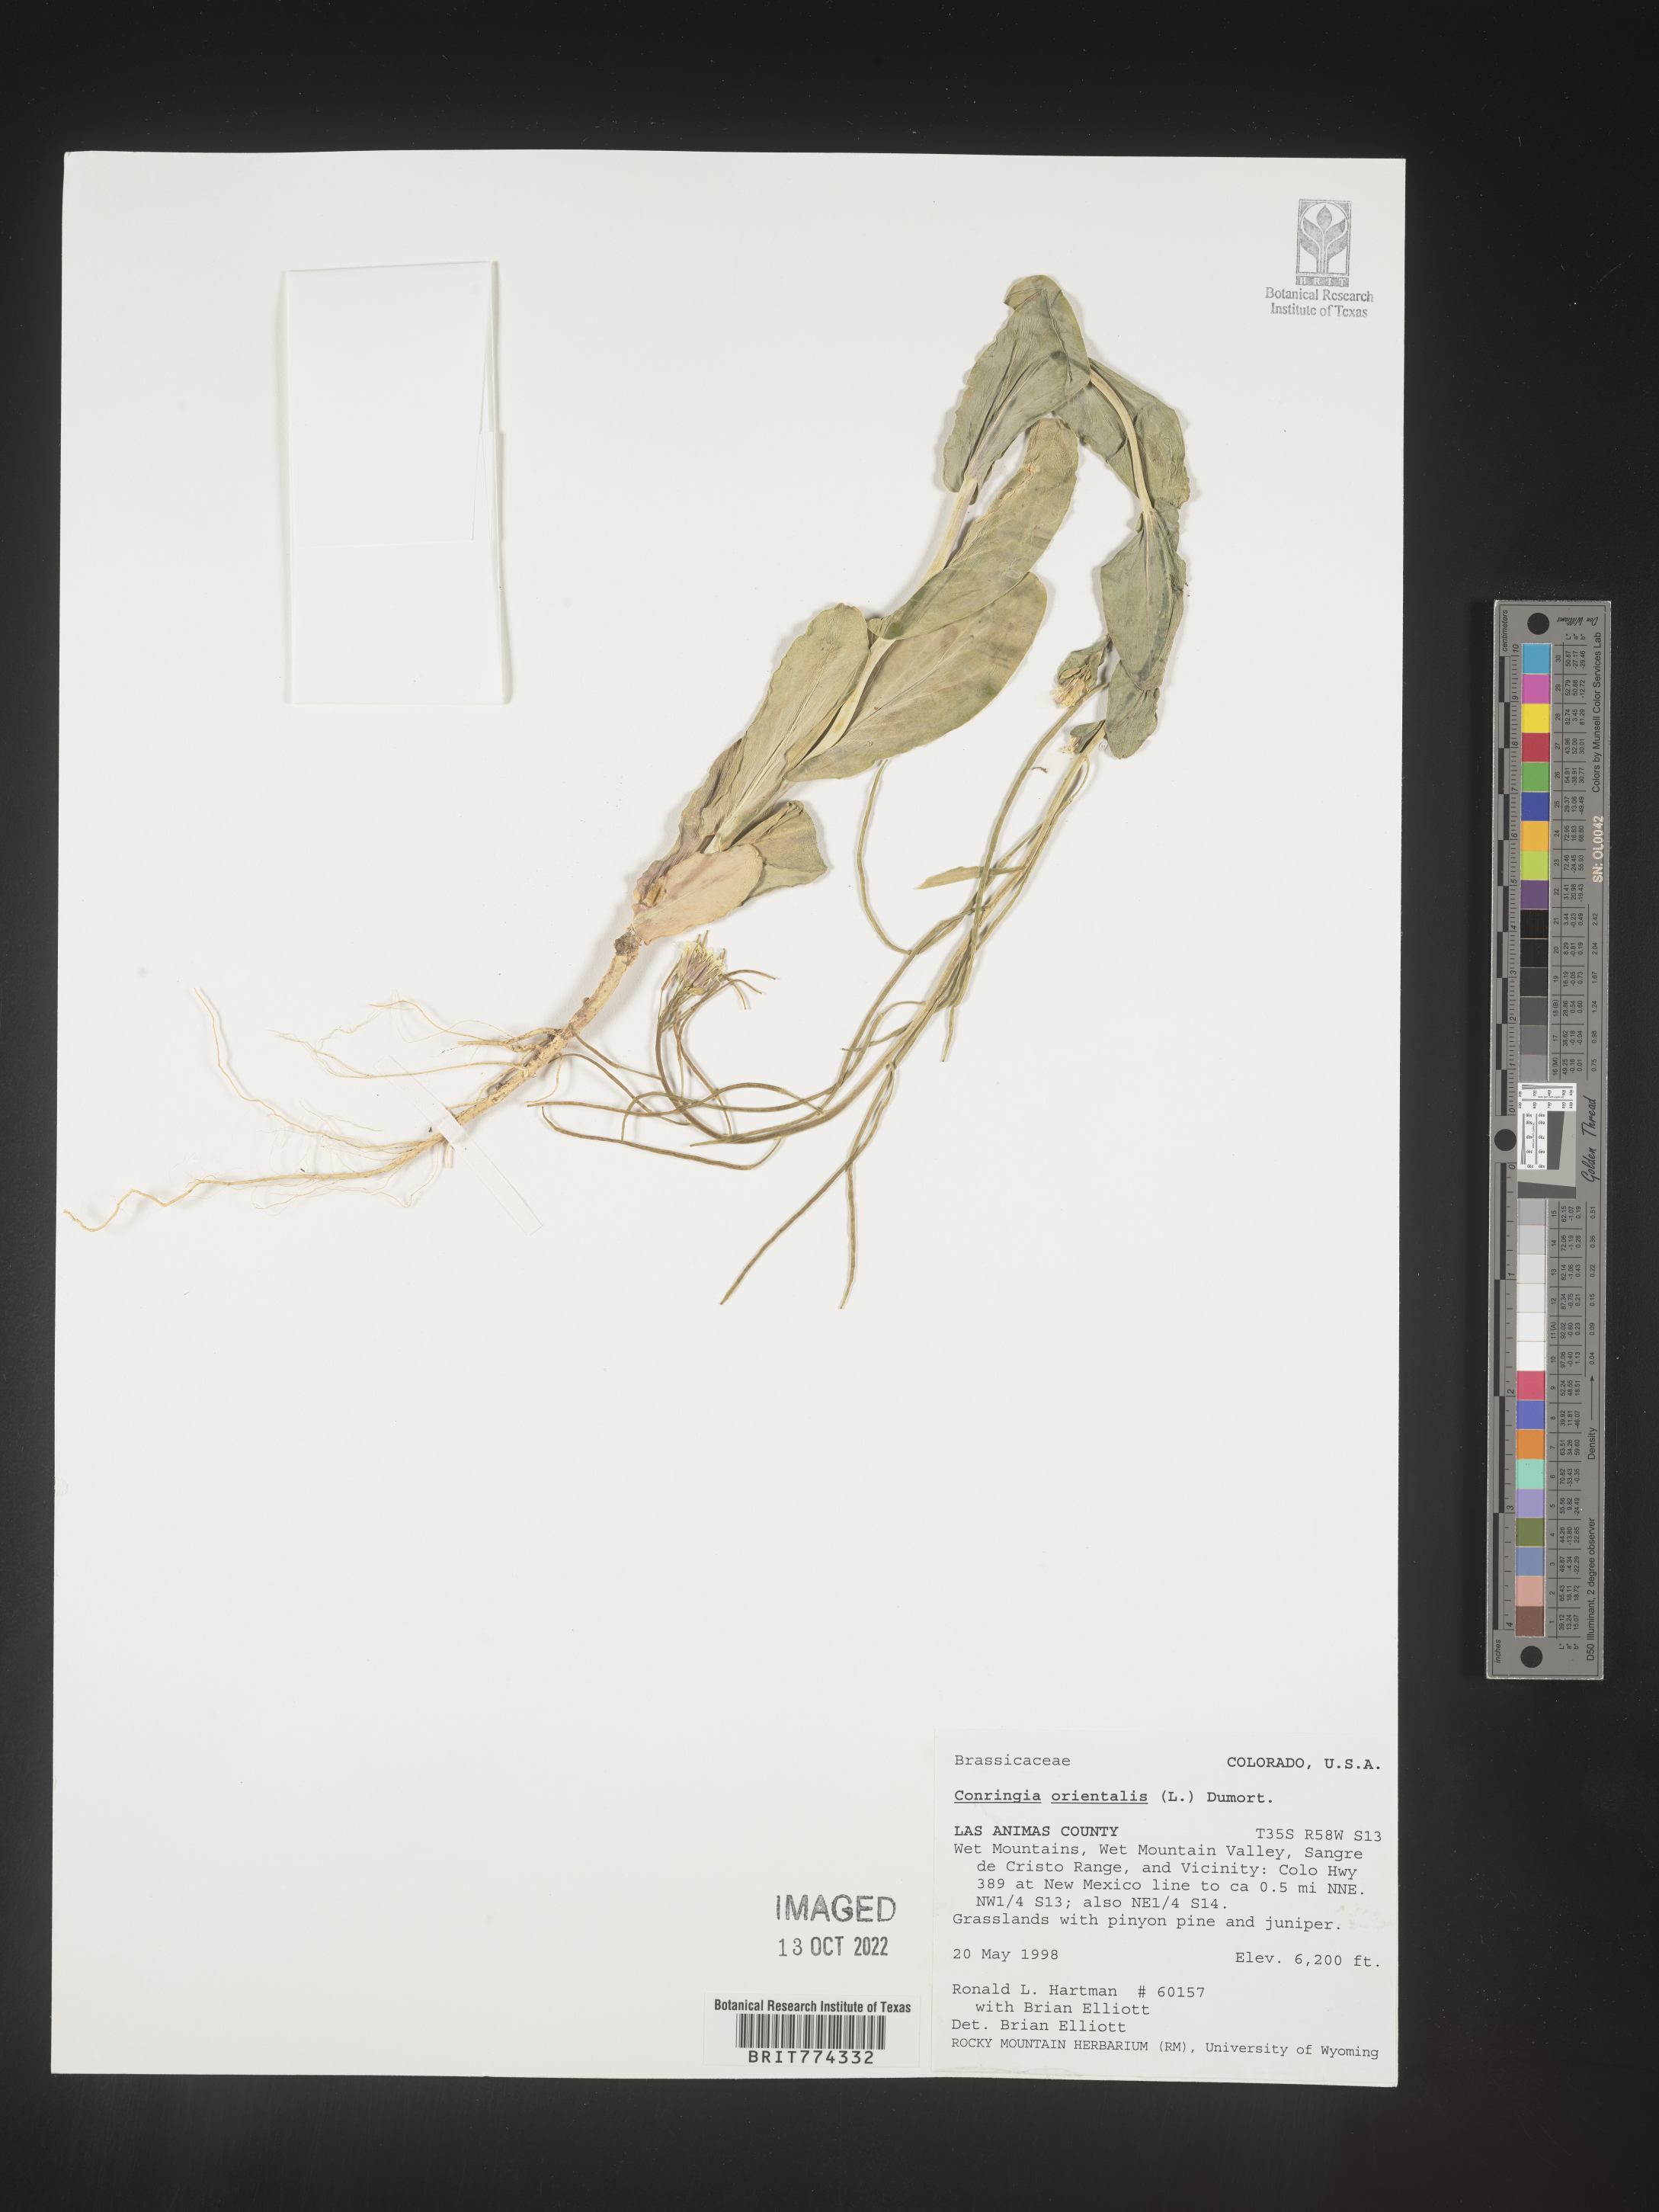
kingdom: Plantae
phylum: Tracheophyta
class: Magnoliopsida
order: Brassicales
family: Brassicaceae
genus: Conringia
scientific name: Conringia
